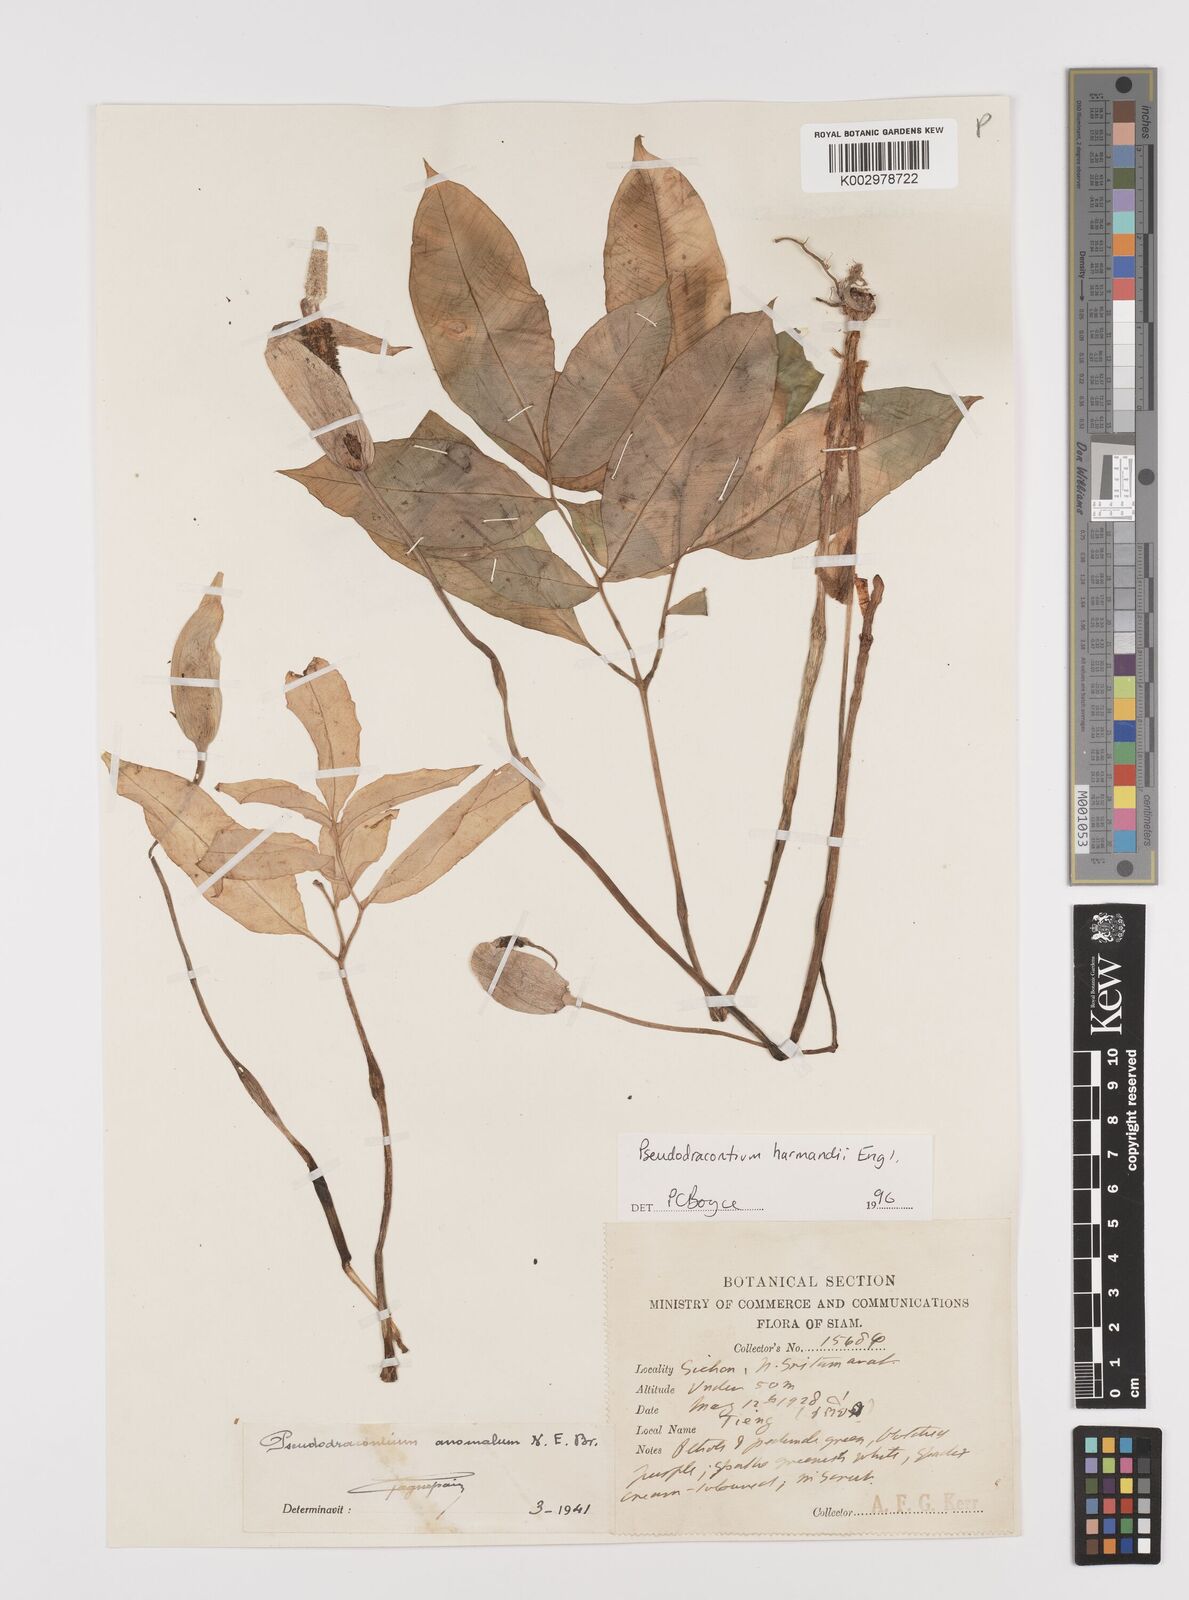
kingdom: Plantae
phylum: Tracheophyta
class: Liliopsida
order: Alismatales
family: Araceae
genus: Amorphophallus
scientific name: Amorphophallus harmandii
